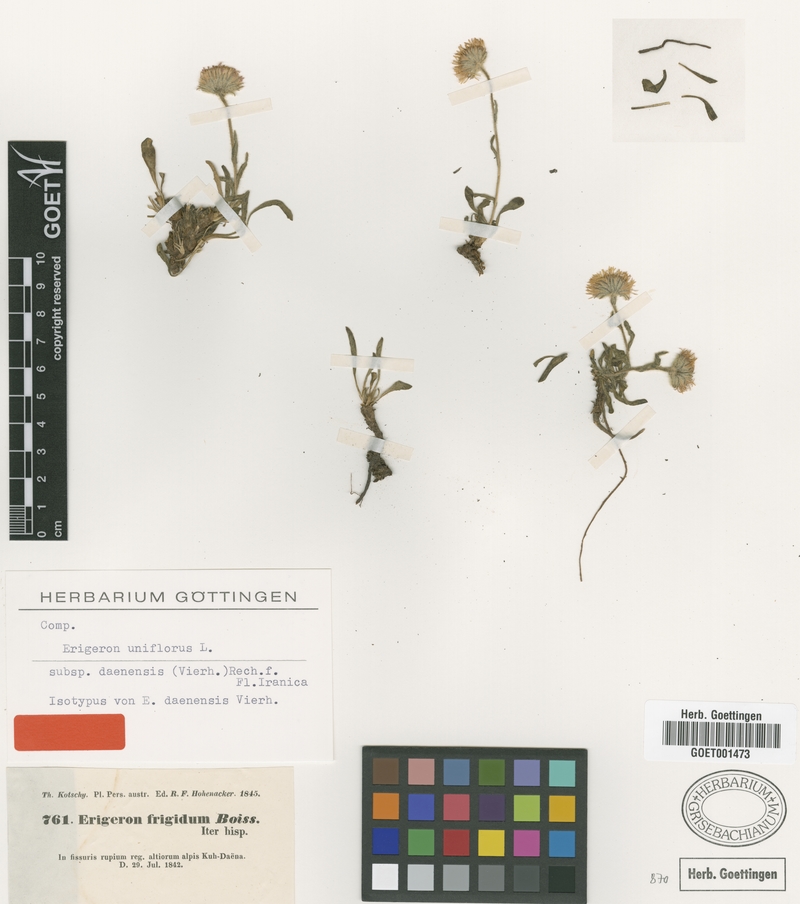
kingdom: Plantae
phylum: Tracheophyta
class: Magnoliopsida
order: Asterales
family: Asteraceae
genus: Erigeron
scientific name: Erigeron daenensis
